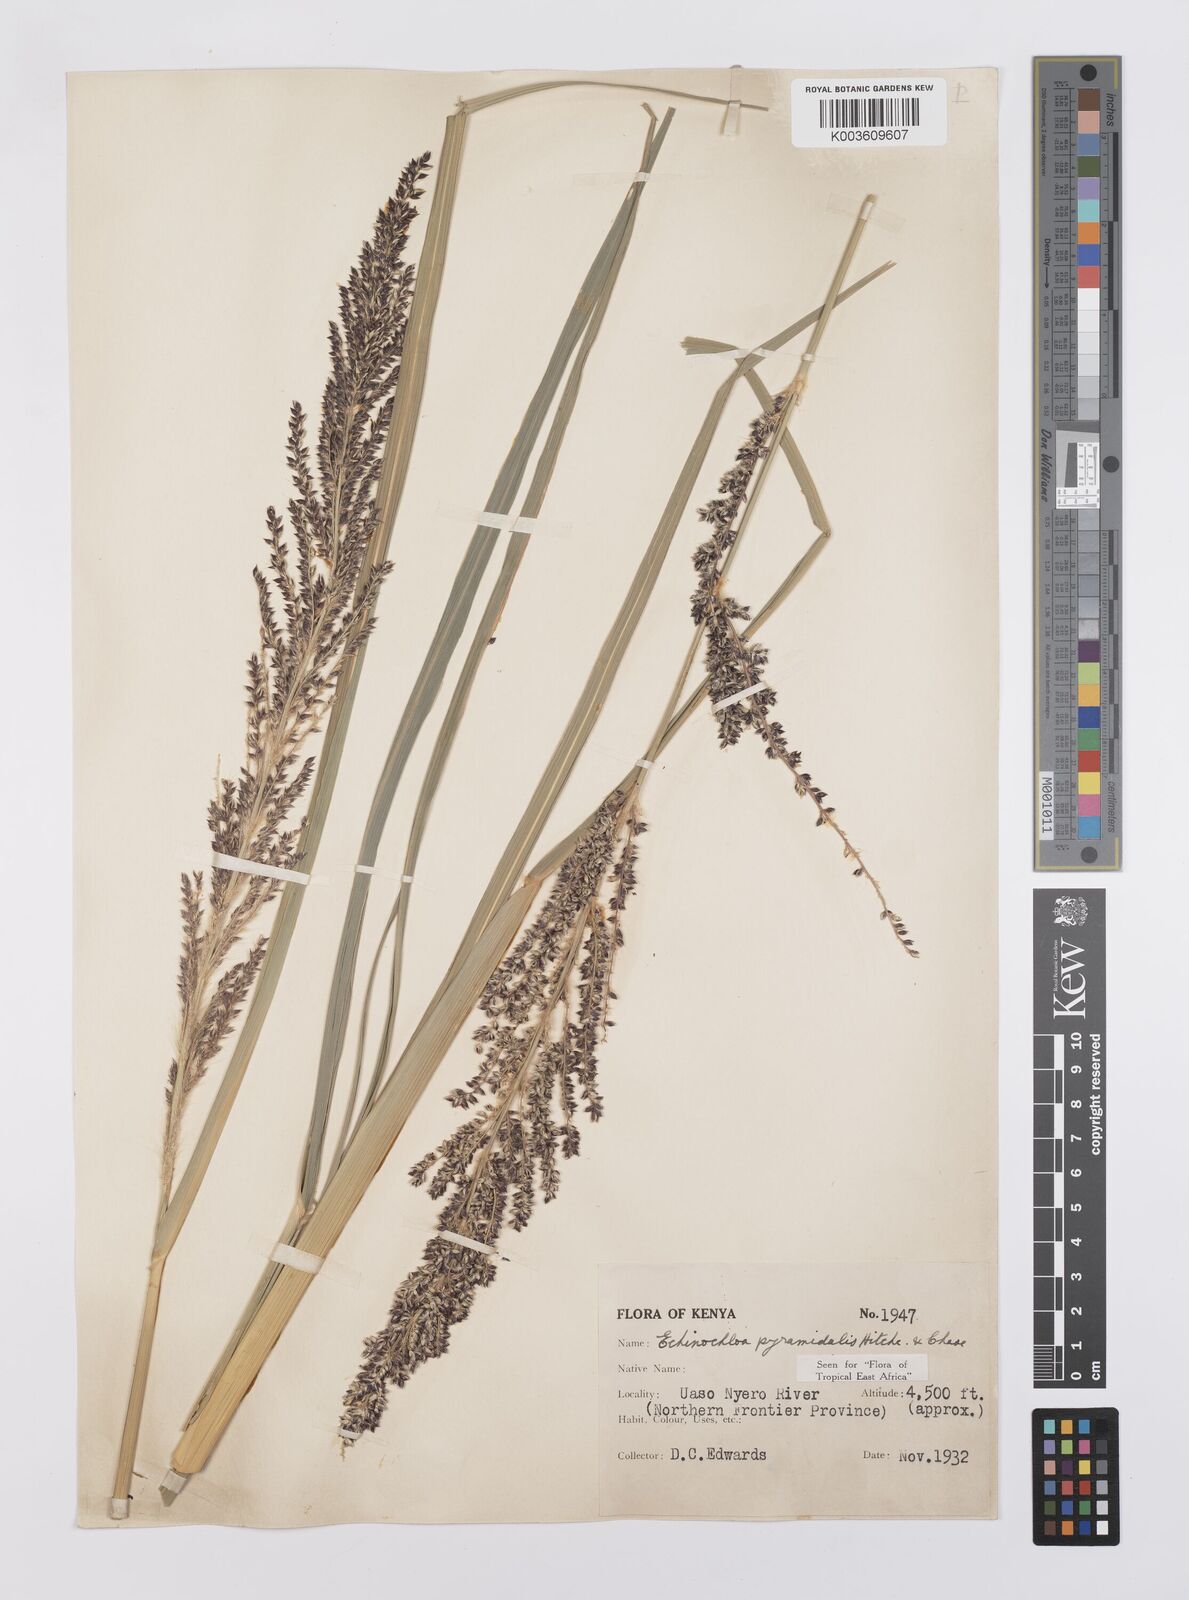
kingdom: Plantae
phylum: Tracheophyta
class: Liliopsida
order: Poales
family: Poaceae
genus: Echinochloa
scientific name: Echinochloa
